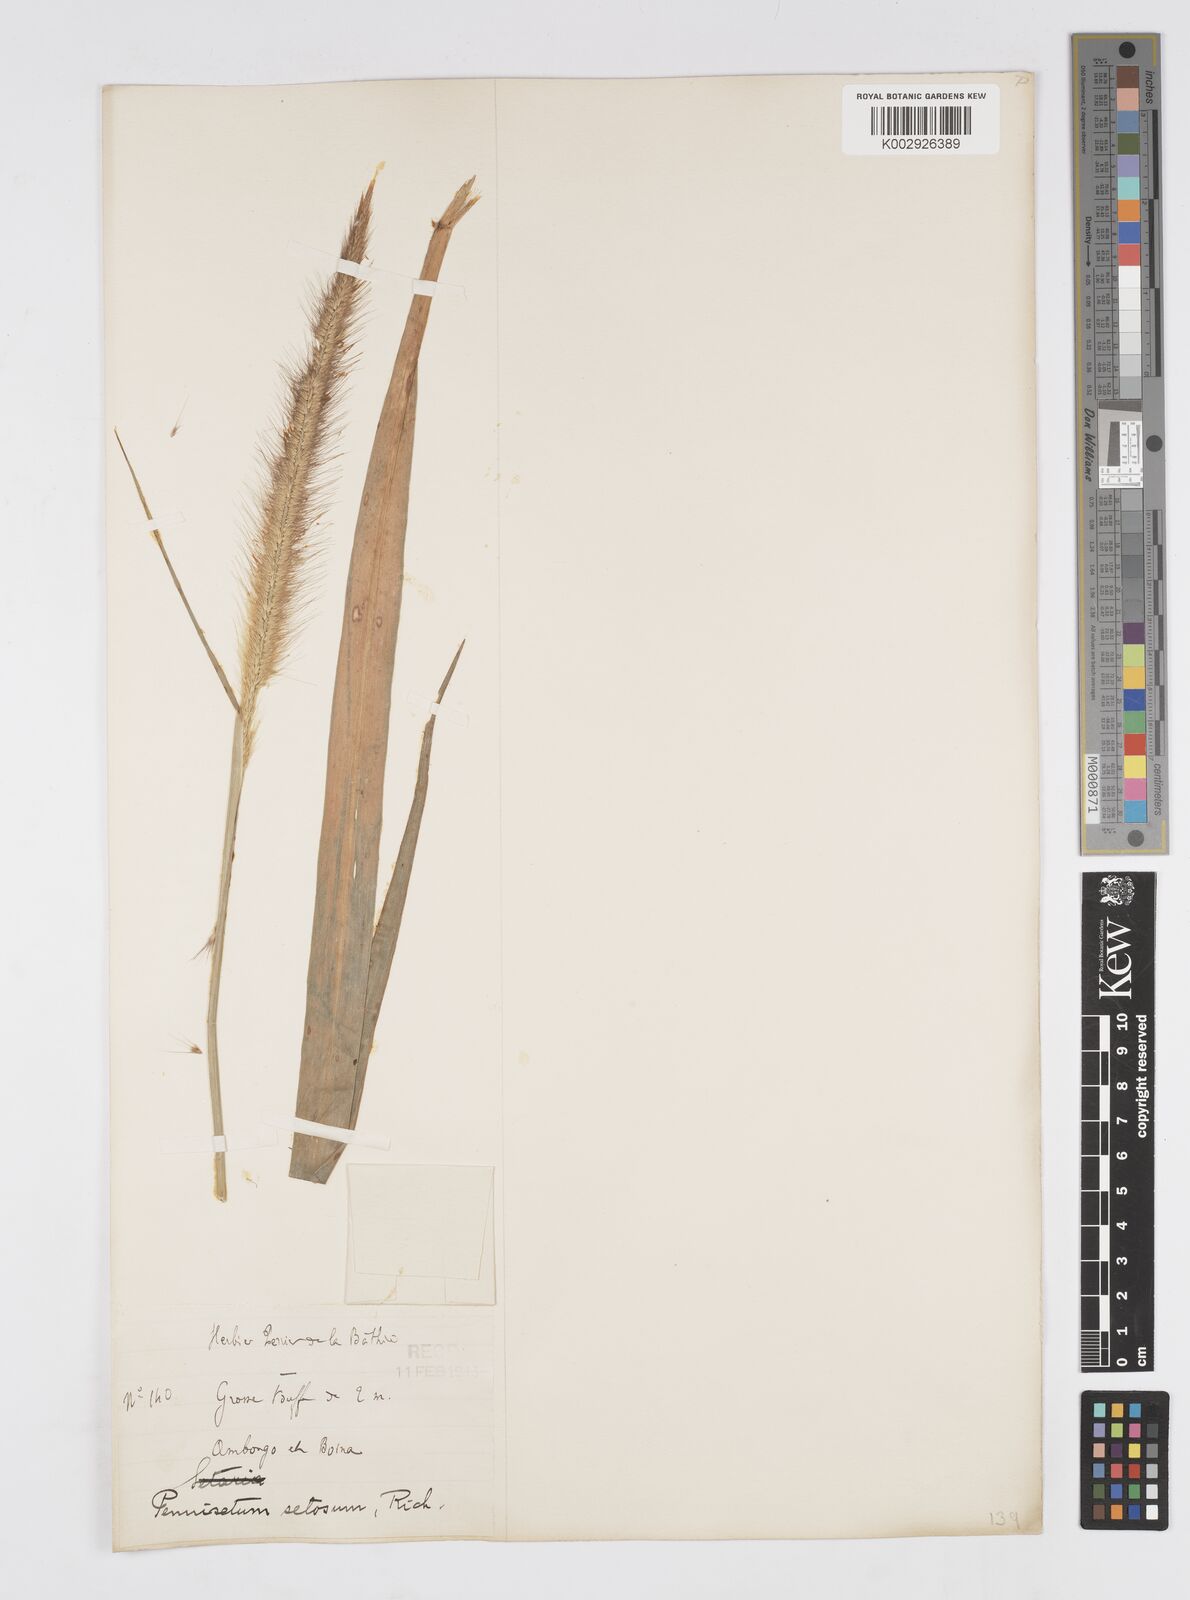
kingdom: Plantae
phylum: Tracheophyta
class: Liliopsida
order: Poales
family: Poaceae
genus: Setaria
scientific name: Setaria parviflora
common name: Knotroot bristle-grass
